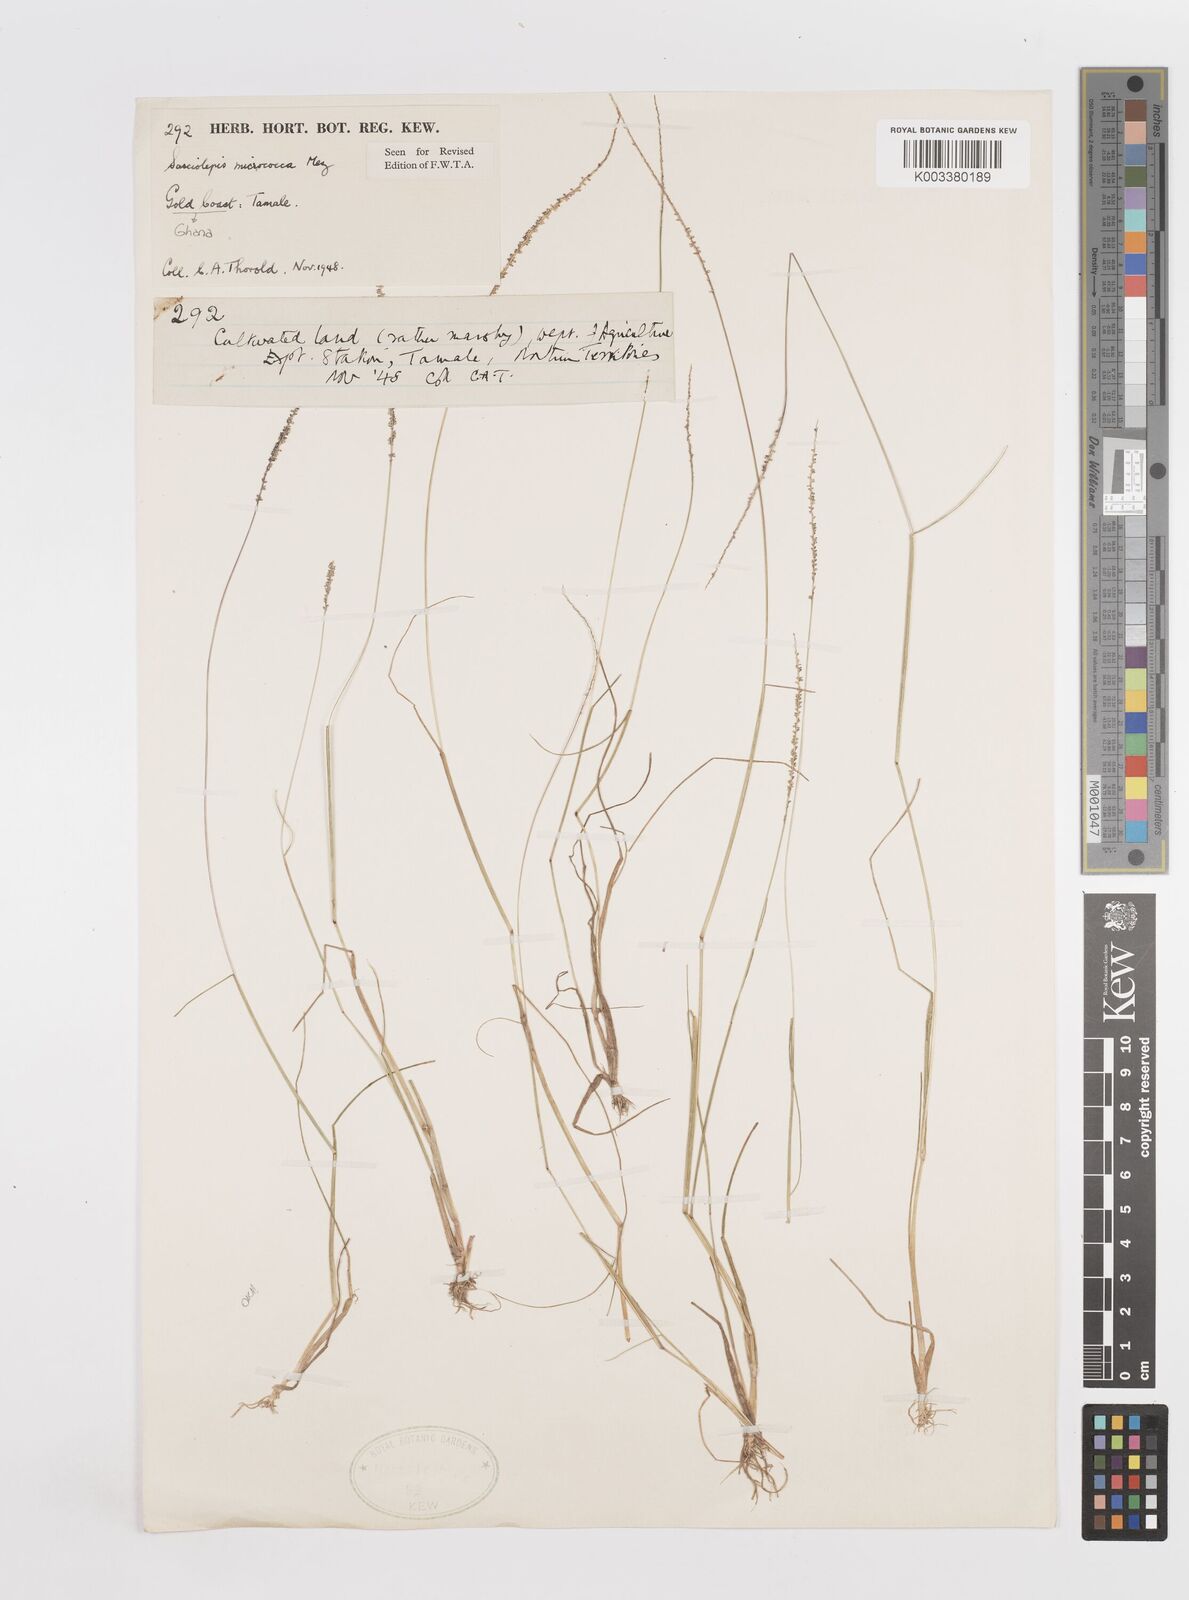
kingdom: Plantae
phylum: Tracheophyta
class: Liliopsida
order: Poales
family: Poaceae
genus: Sacciolepis
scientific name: Sacciolepis micrococca
